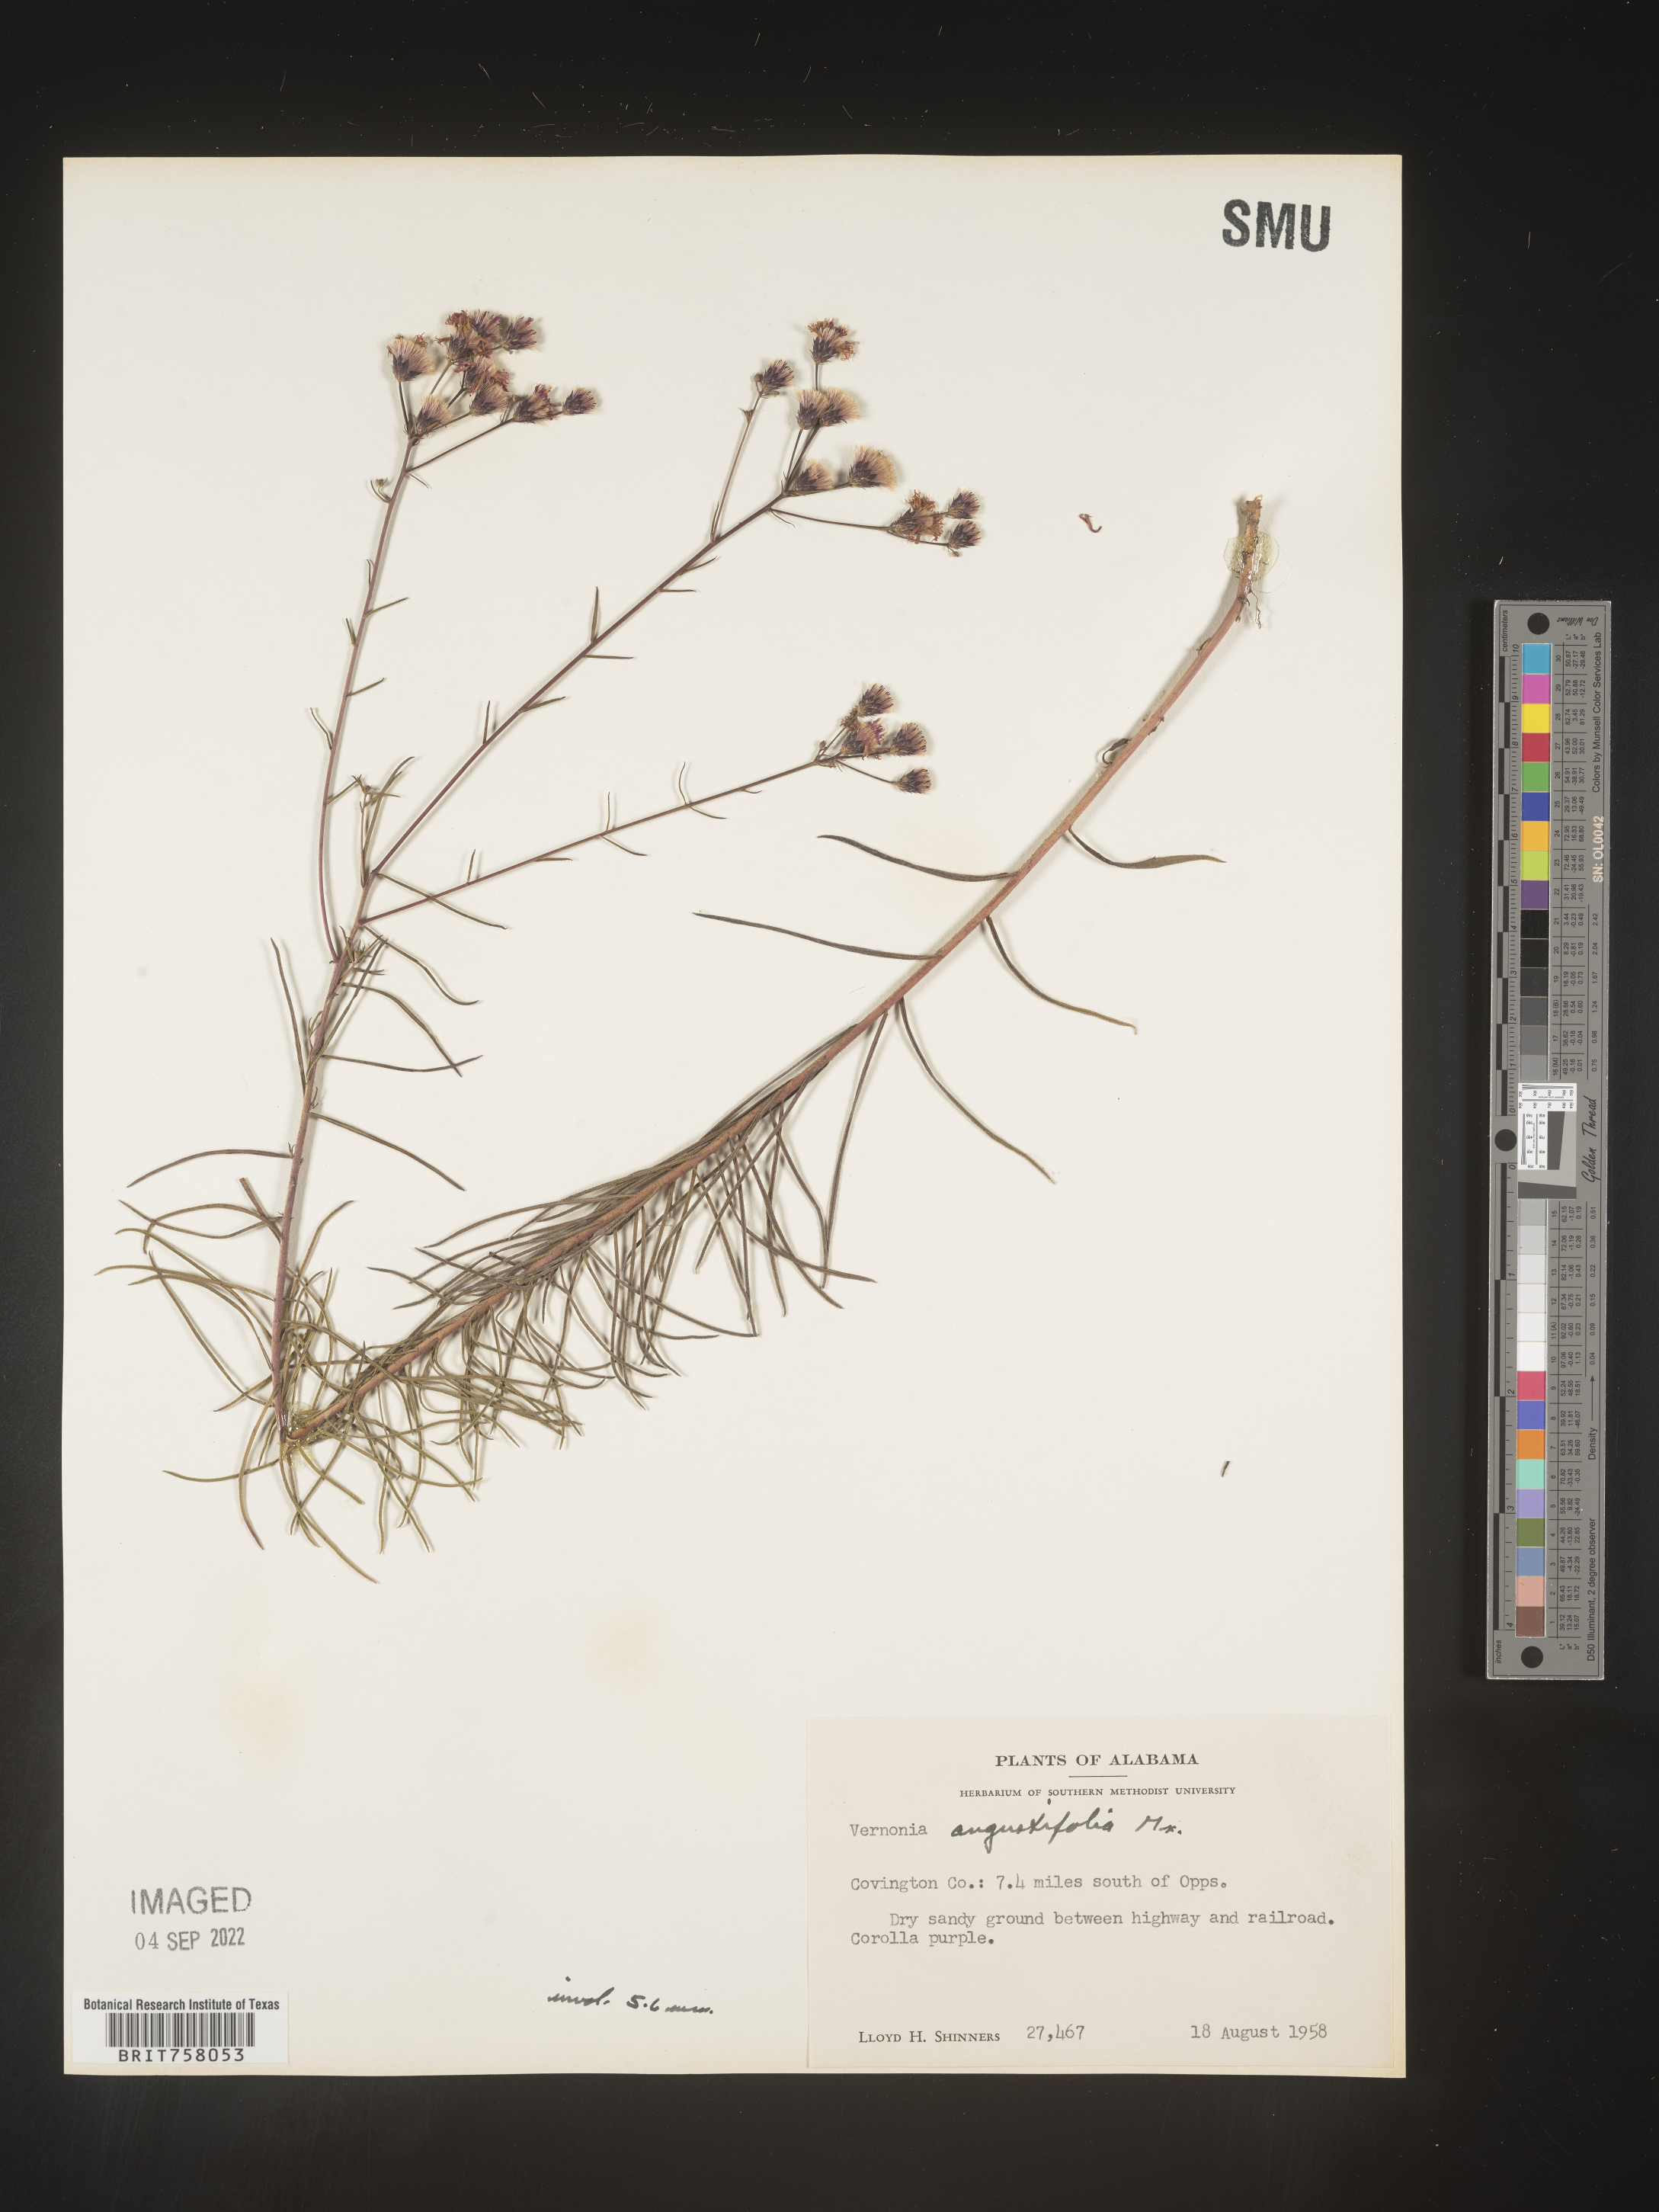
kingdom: Plantae
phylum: Tracheophyta
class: Magnoliopsida
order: Asterales
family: Asteraceae
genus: Vernonia
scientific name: Vernonia angustifolia
